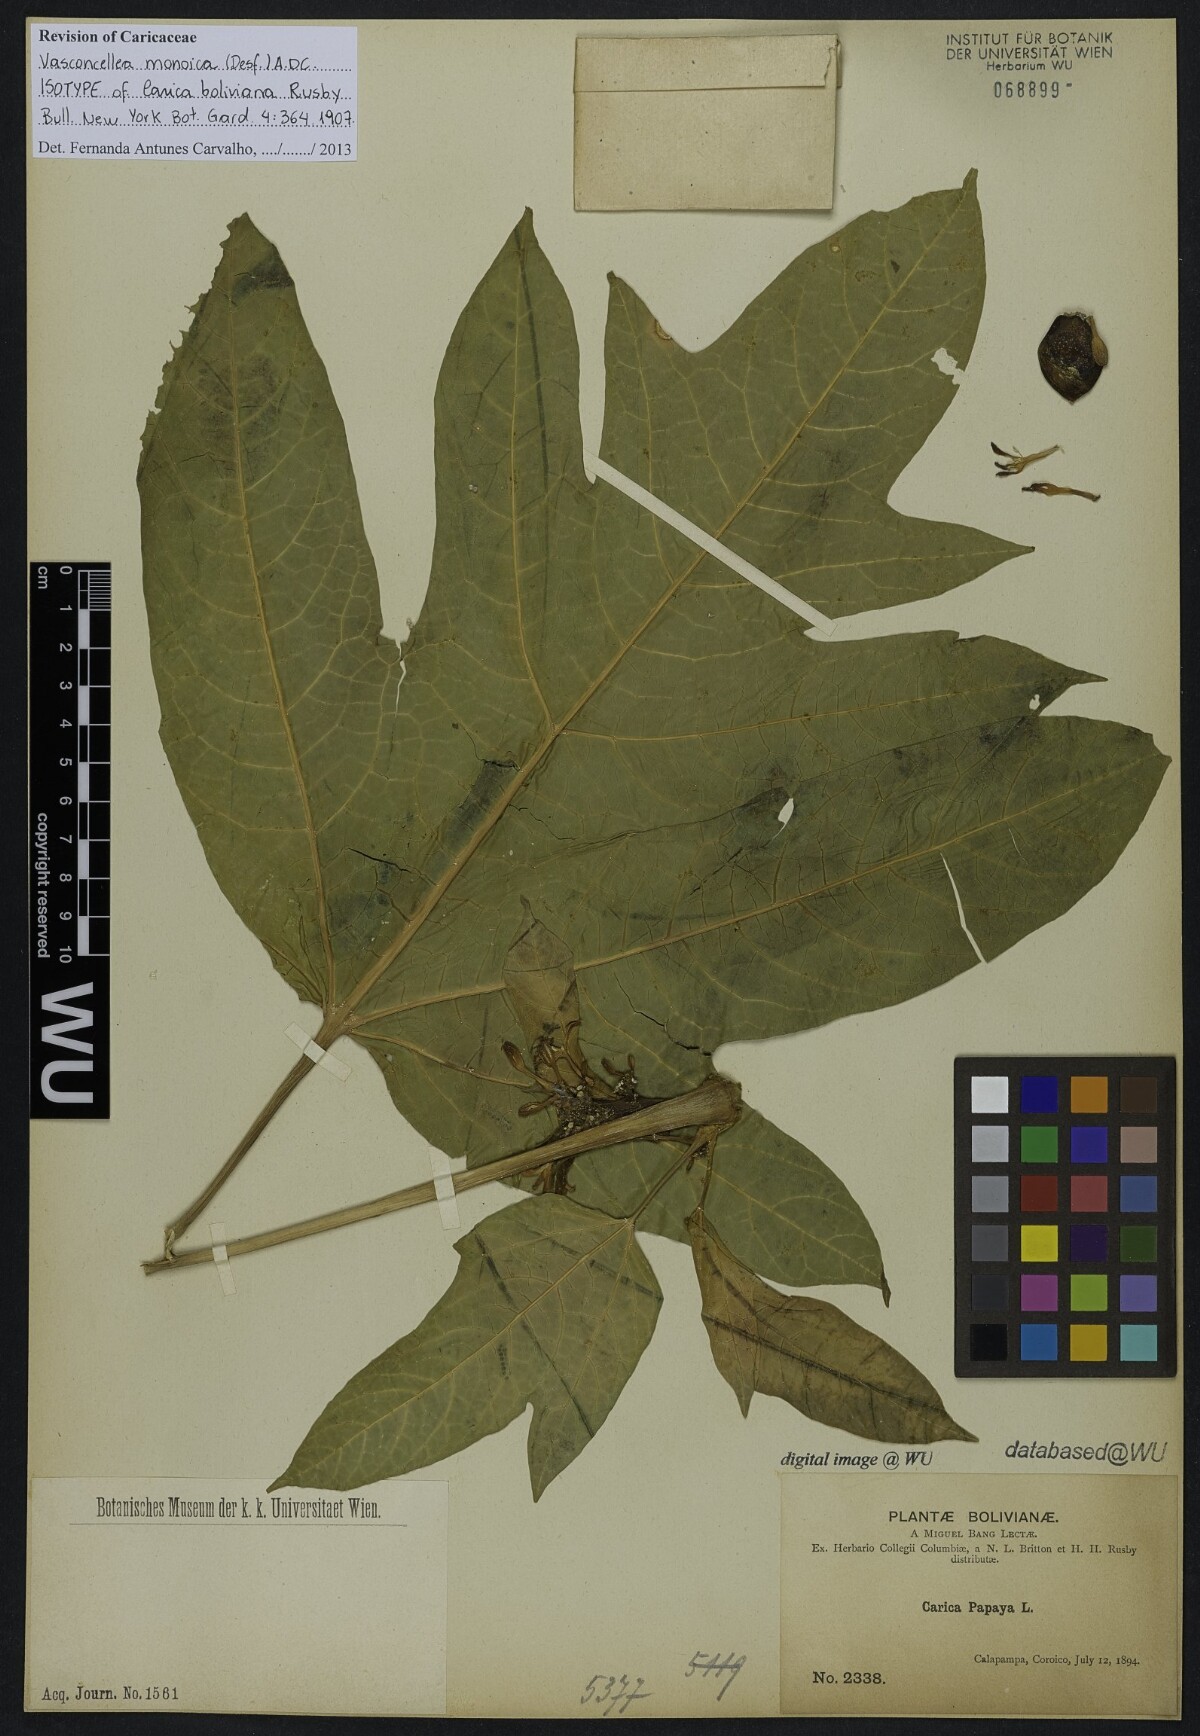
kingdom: Plantae
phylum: Tracheophyta
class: Magnoliopsida
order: Brassicales
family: Caricaceae
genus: Vasconcellea
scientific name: Vasconcellea monoica
